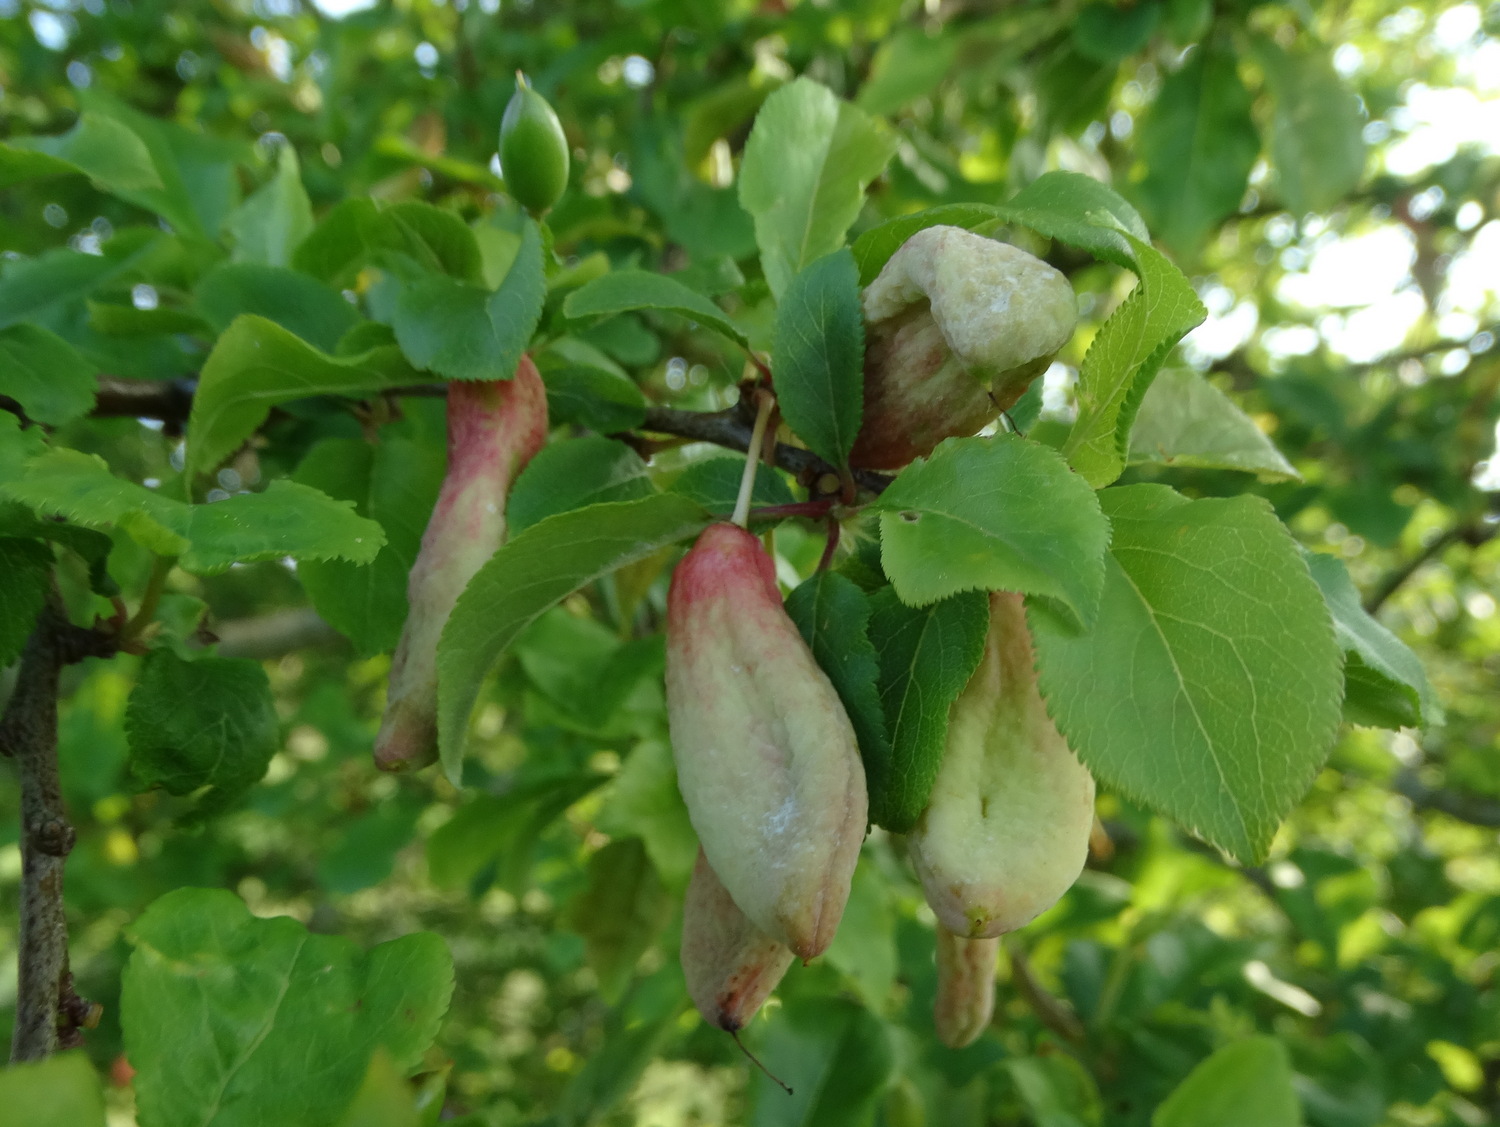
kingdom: Fungi
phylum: Ascomycota
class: Taphrinomycetes
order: Taphrinales
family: Taphrinaceae
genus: Taphrina
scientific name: Taphrina pruni
